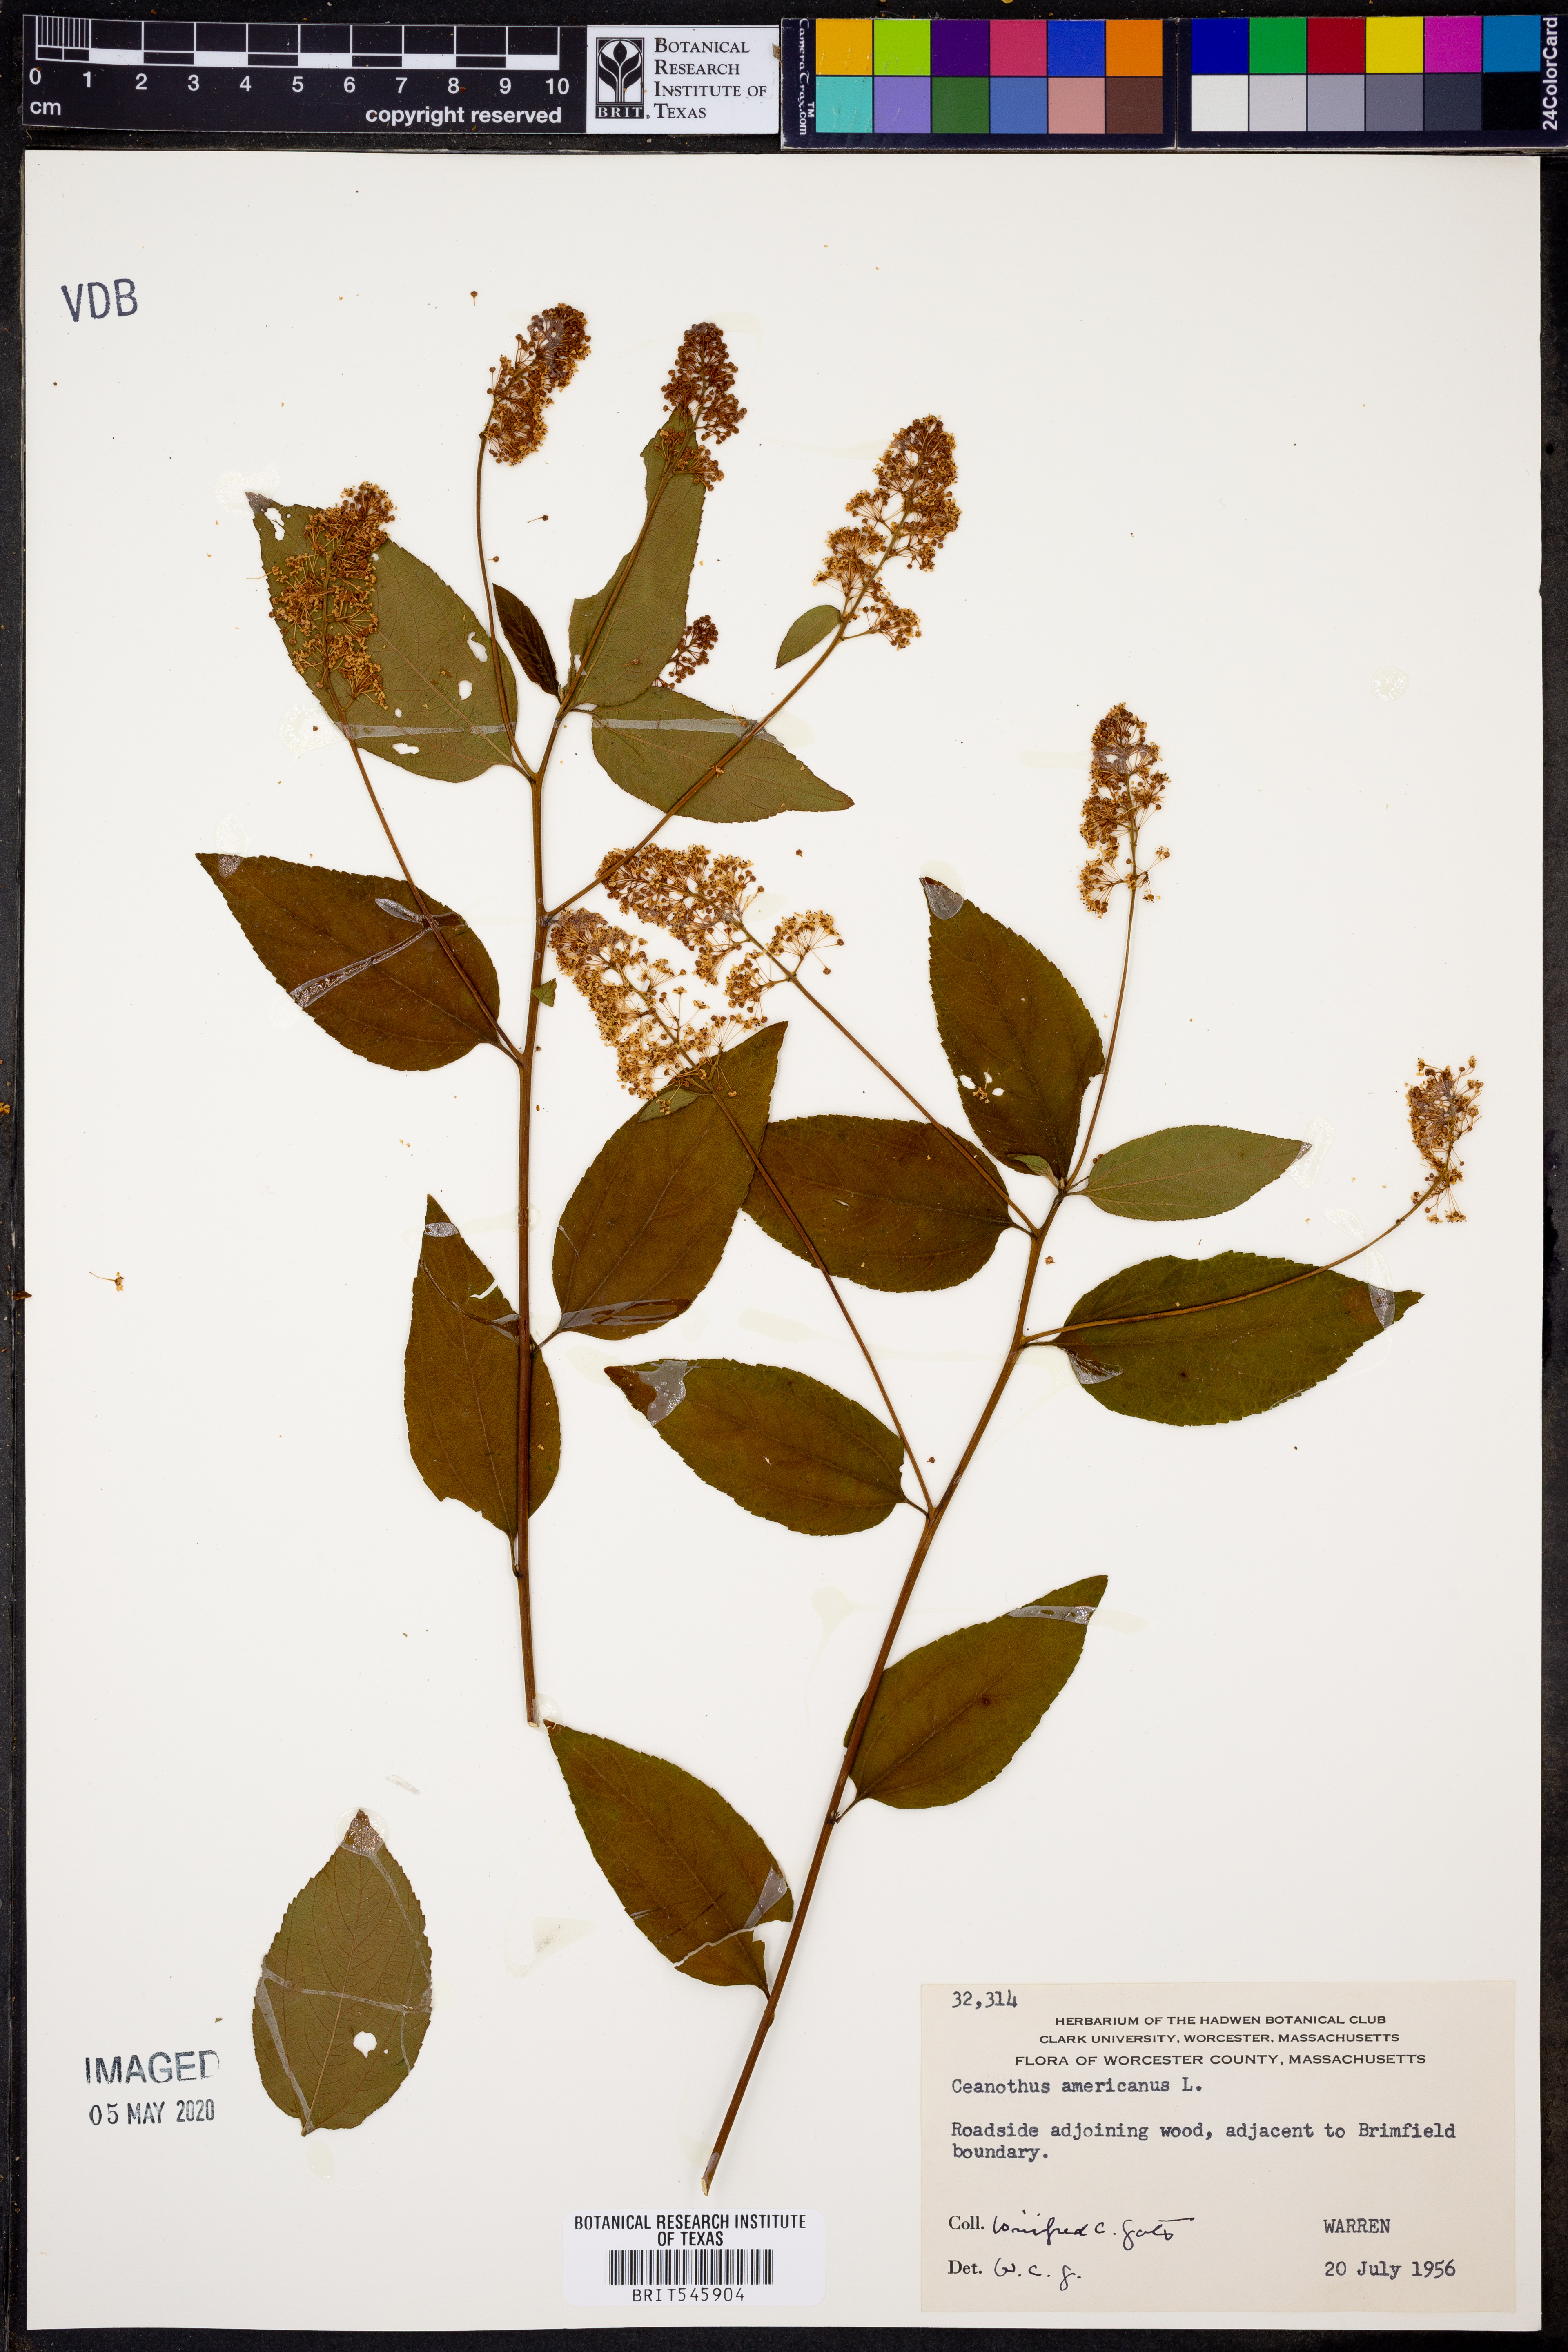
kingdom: Plantae
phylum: Tracheophyta
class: Magnoliopsida
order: Rosales
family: Rhamnaceae
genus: Ceanothus
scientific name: Ceanothus americanus
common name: Redroot
